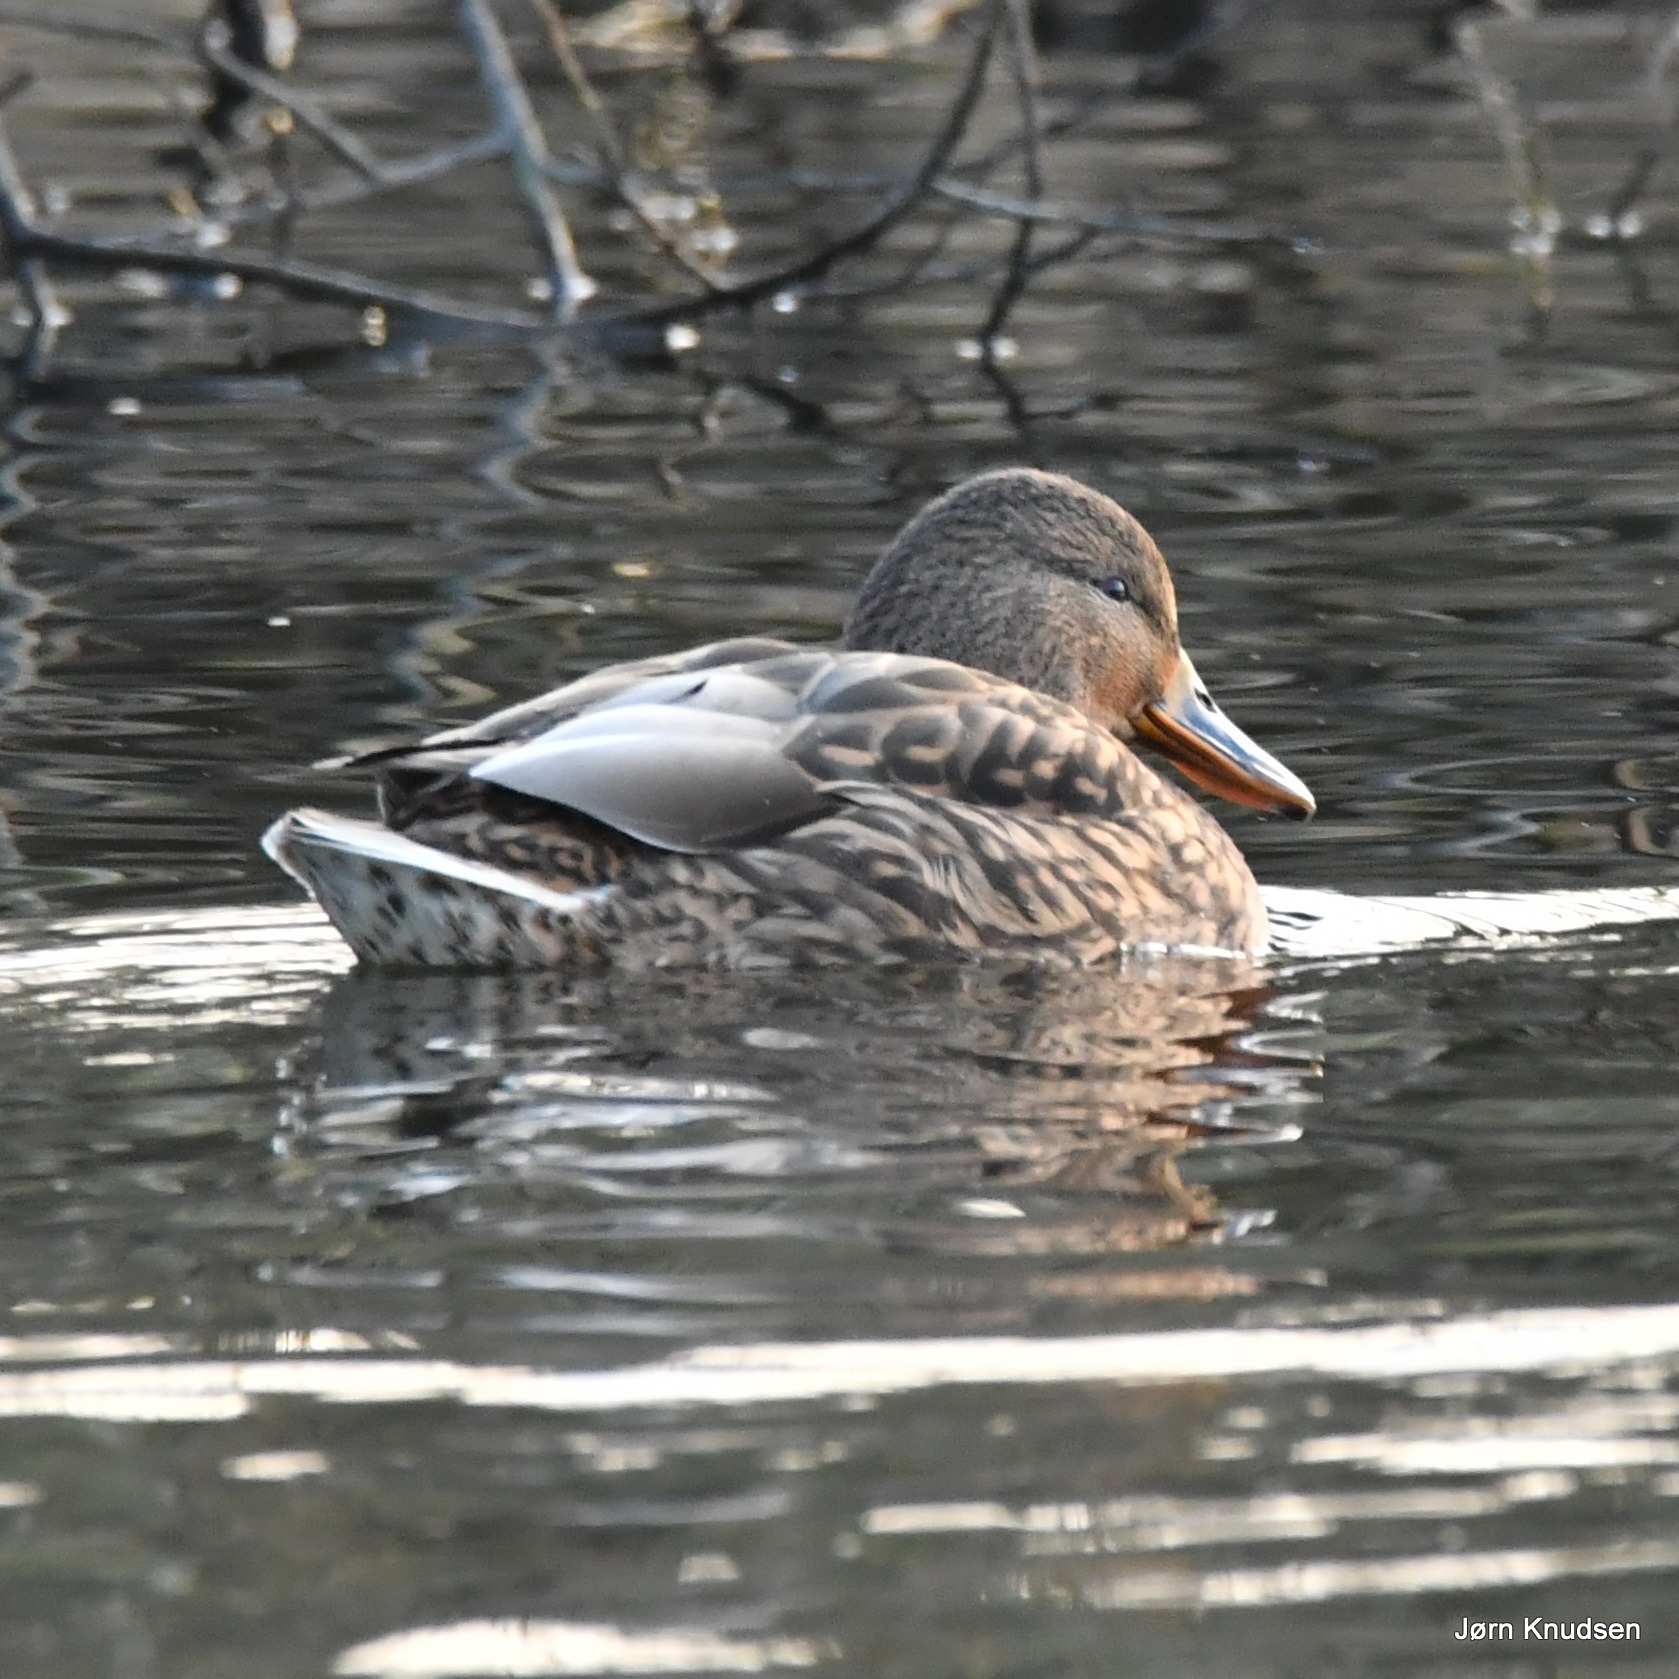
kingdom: Animalia
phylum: Chordata
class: Aves
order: Anseriformes
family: Anatidae
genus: Anas
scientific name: Anas platyrhynchos
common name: Gråand
